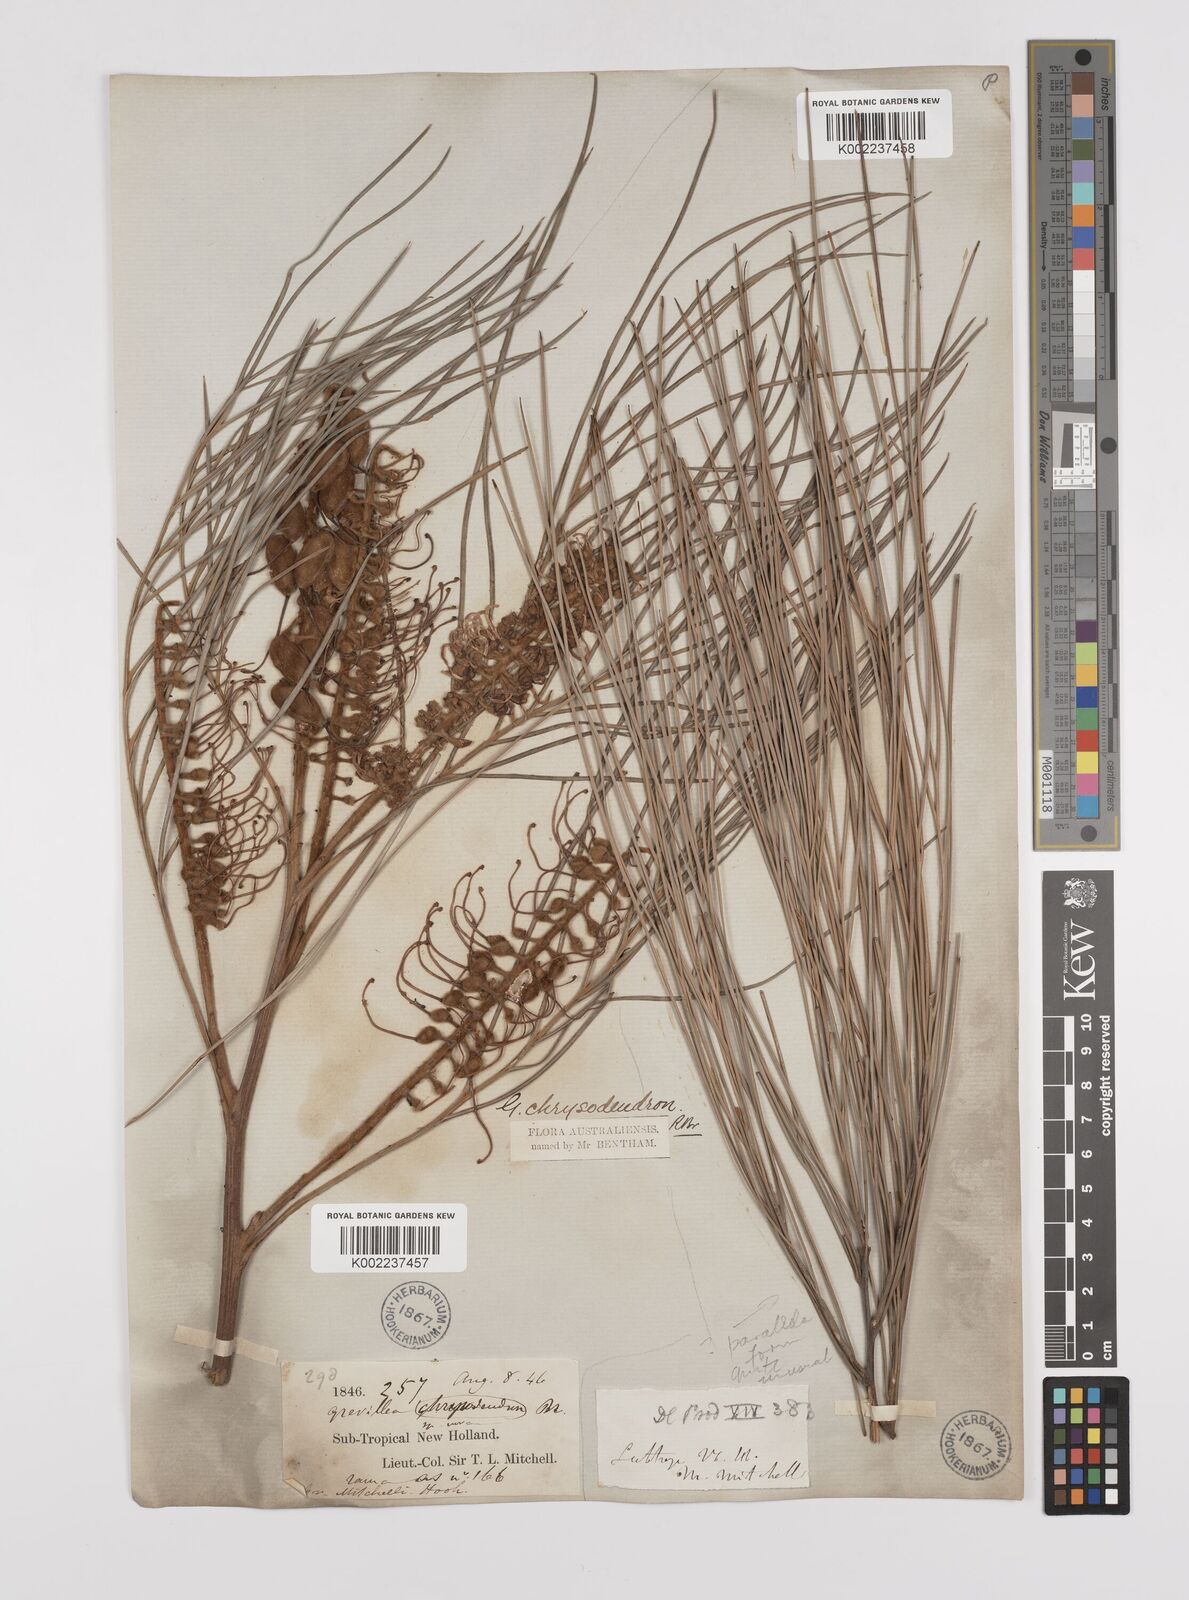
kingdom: Plantae
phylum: Tracheophyta
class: Magnoliopsida
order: Proteales
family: Proteaceae
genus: Grevillea
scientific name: Grevillea pteridifolia
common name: Golden grevillea
